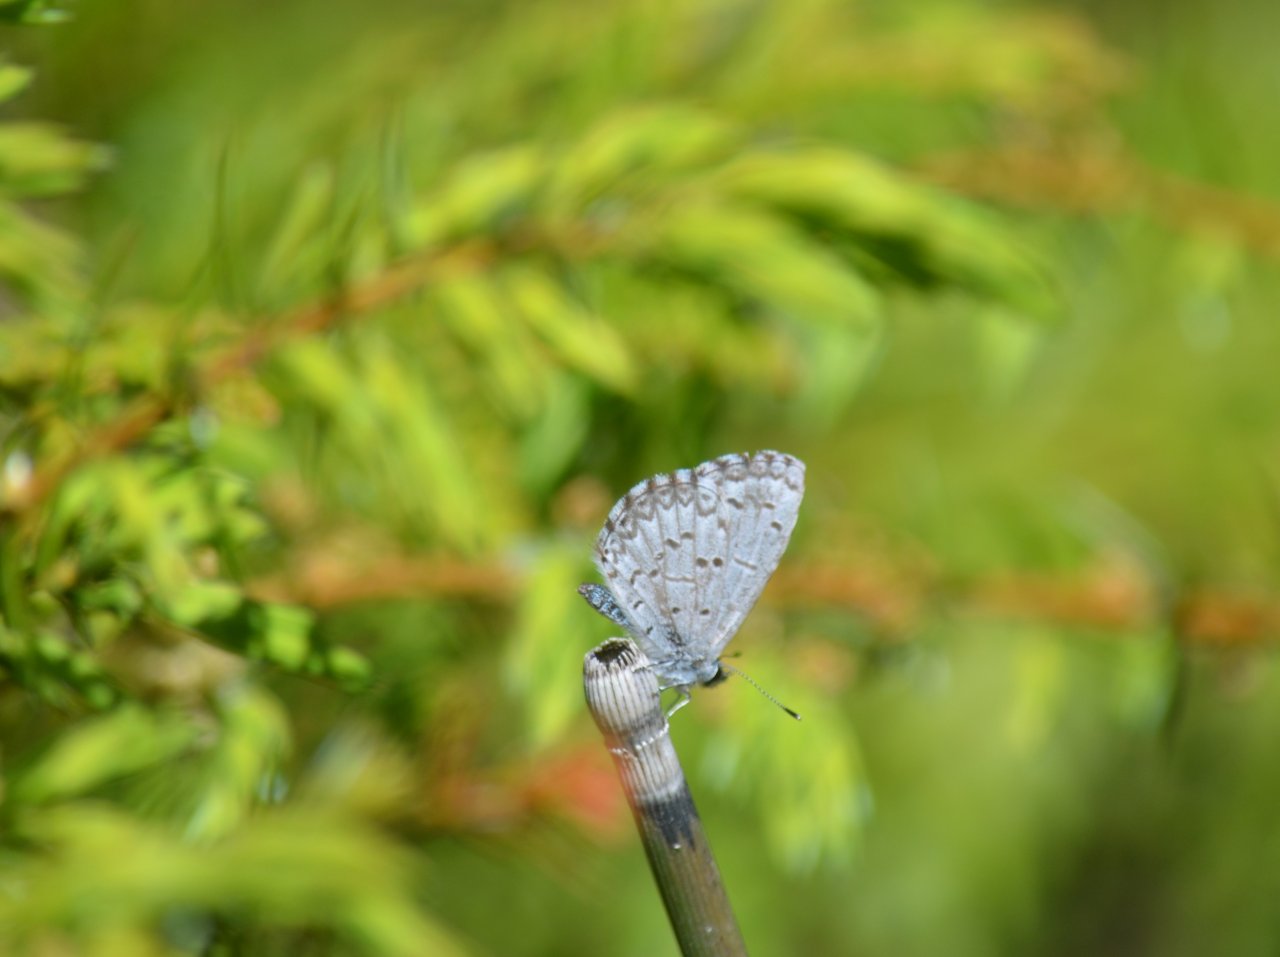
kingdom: Animalia
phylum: Arthropoda
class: Insecta
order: Lepidoptera
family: Lycaenidae
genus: Celastrina
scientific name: Celastrina lucia
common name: Northern Spring Azure
